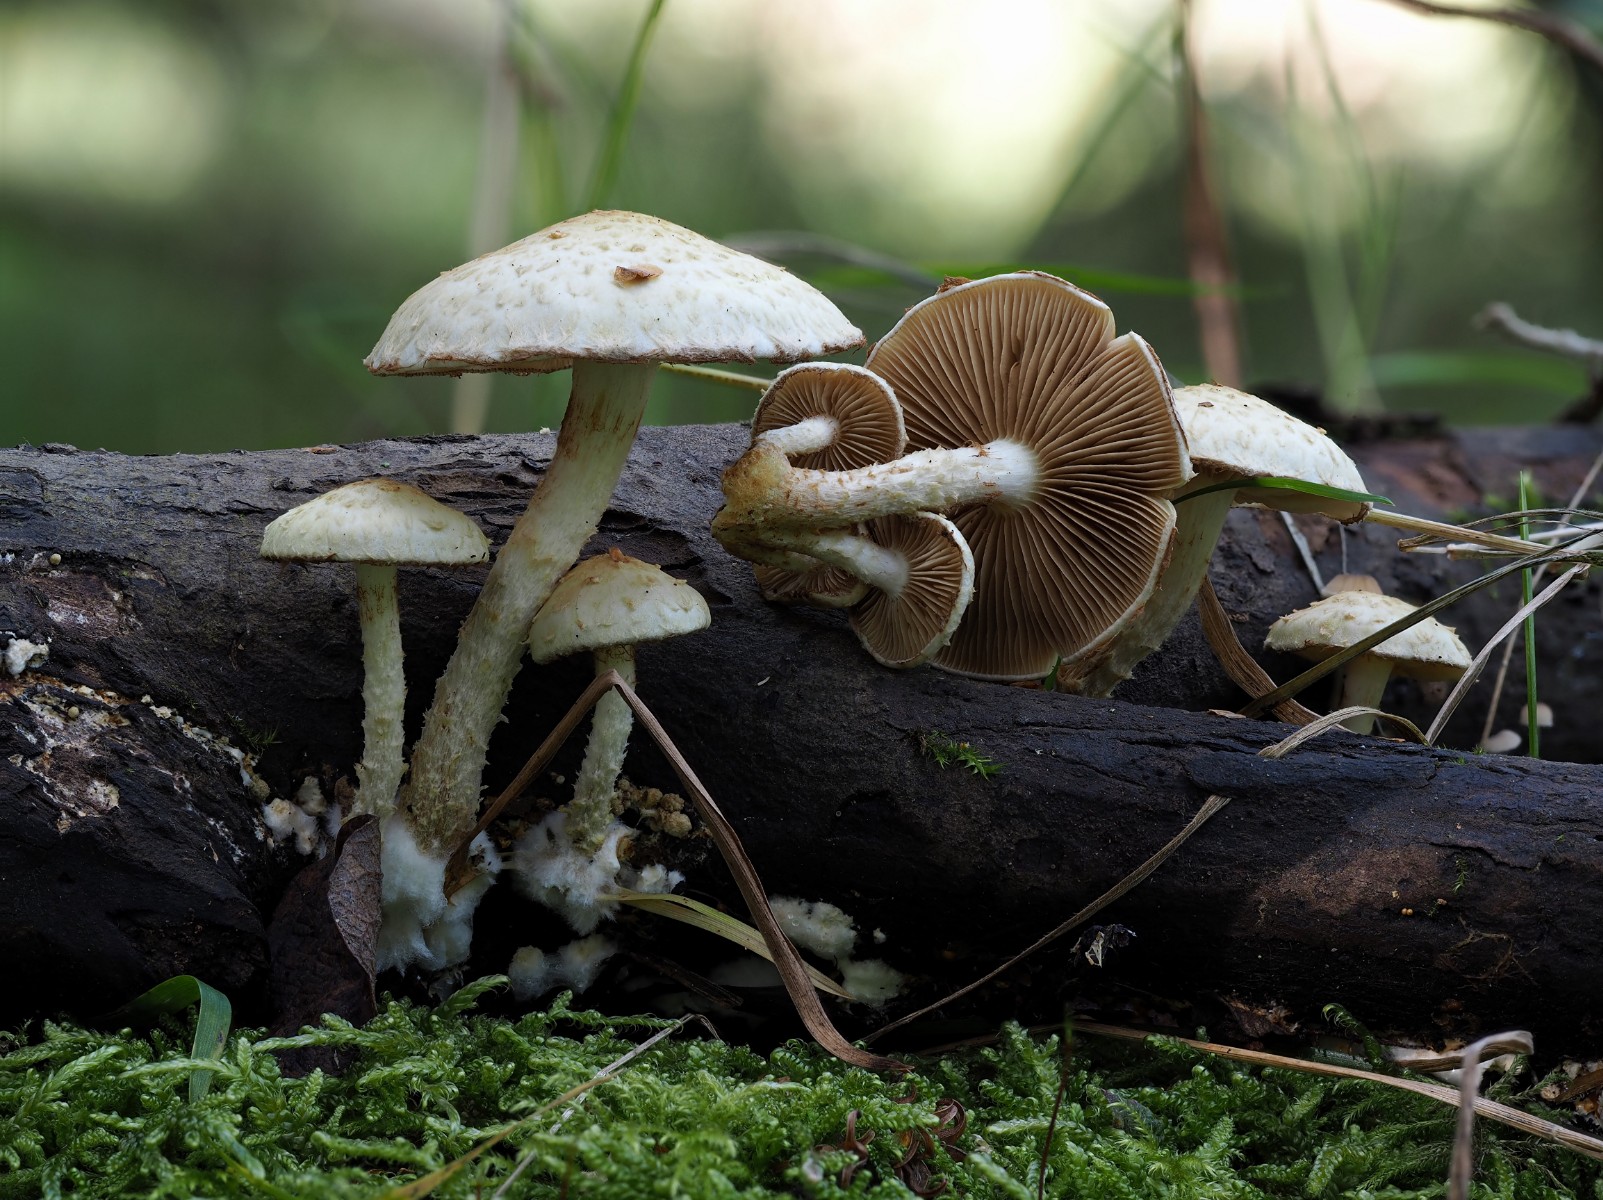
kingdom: Fungi
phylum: Basidiomycota
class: Agaricomycetes
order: Agaricales
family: Strophariaceae
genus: Pholiota
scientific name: Pholiota gummosa
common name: grøngul skælhat
